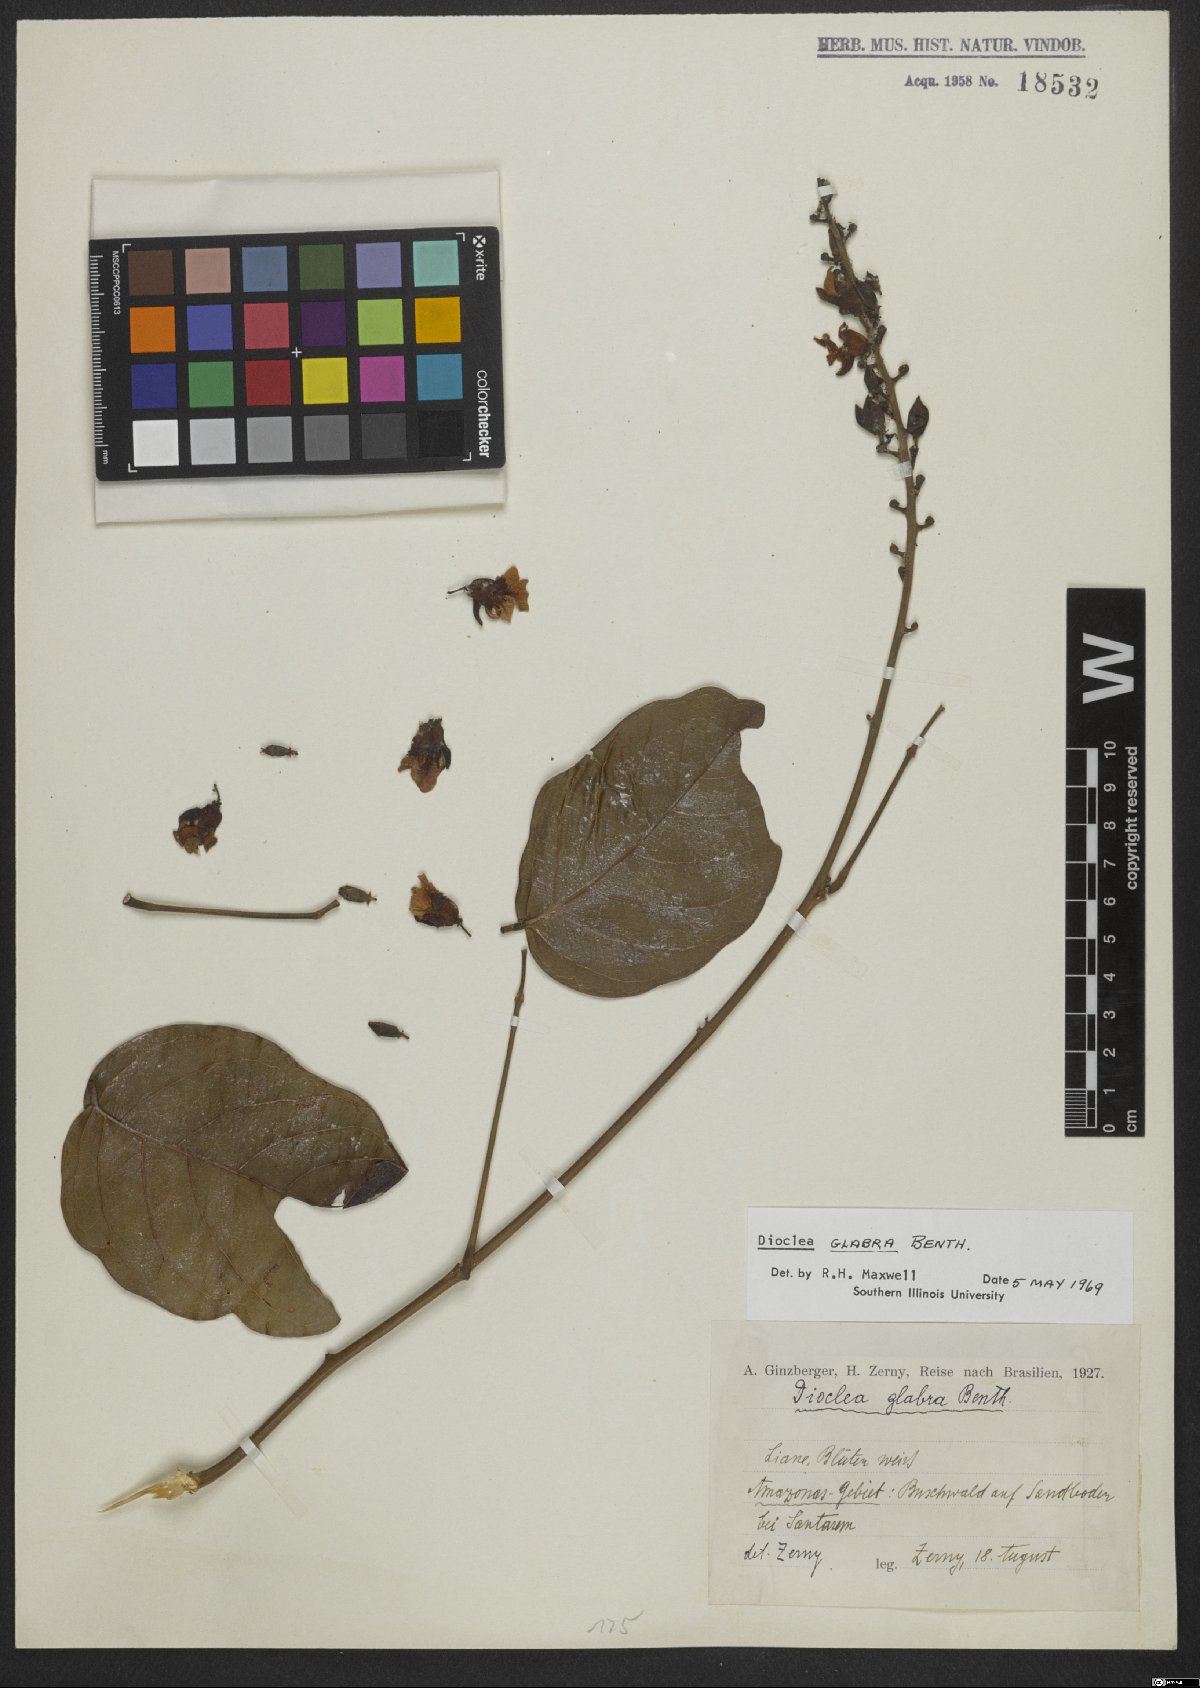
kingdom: Plantae
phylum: Tracheophyta
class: Magnoliopsida
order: Fabales
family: Fabaceae
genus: Macropsychanthus
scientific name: Macropsychanthus glaber
